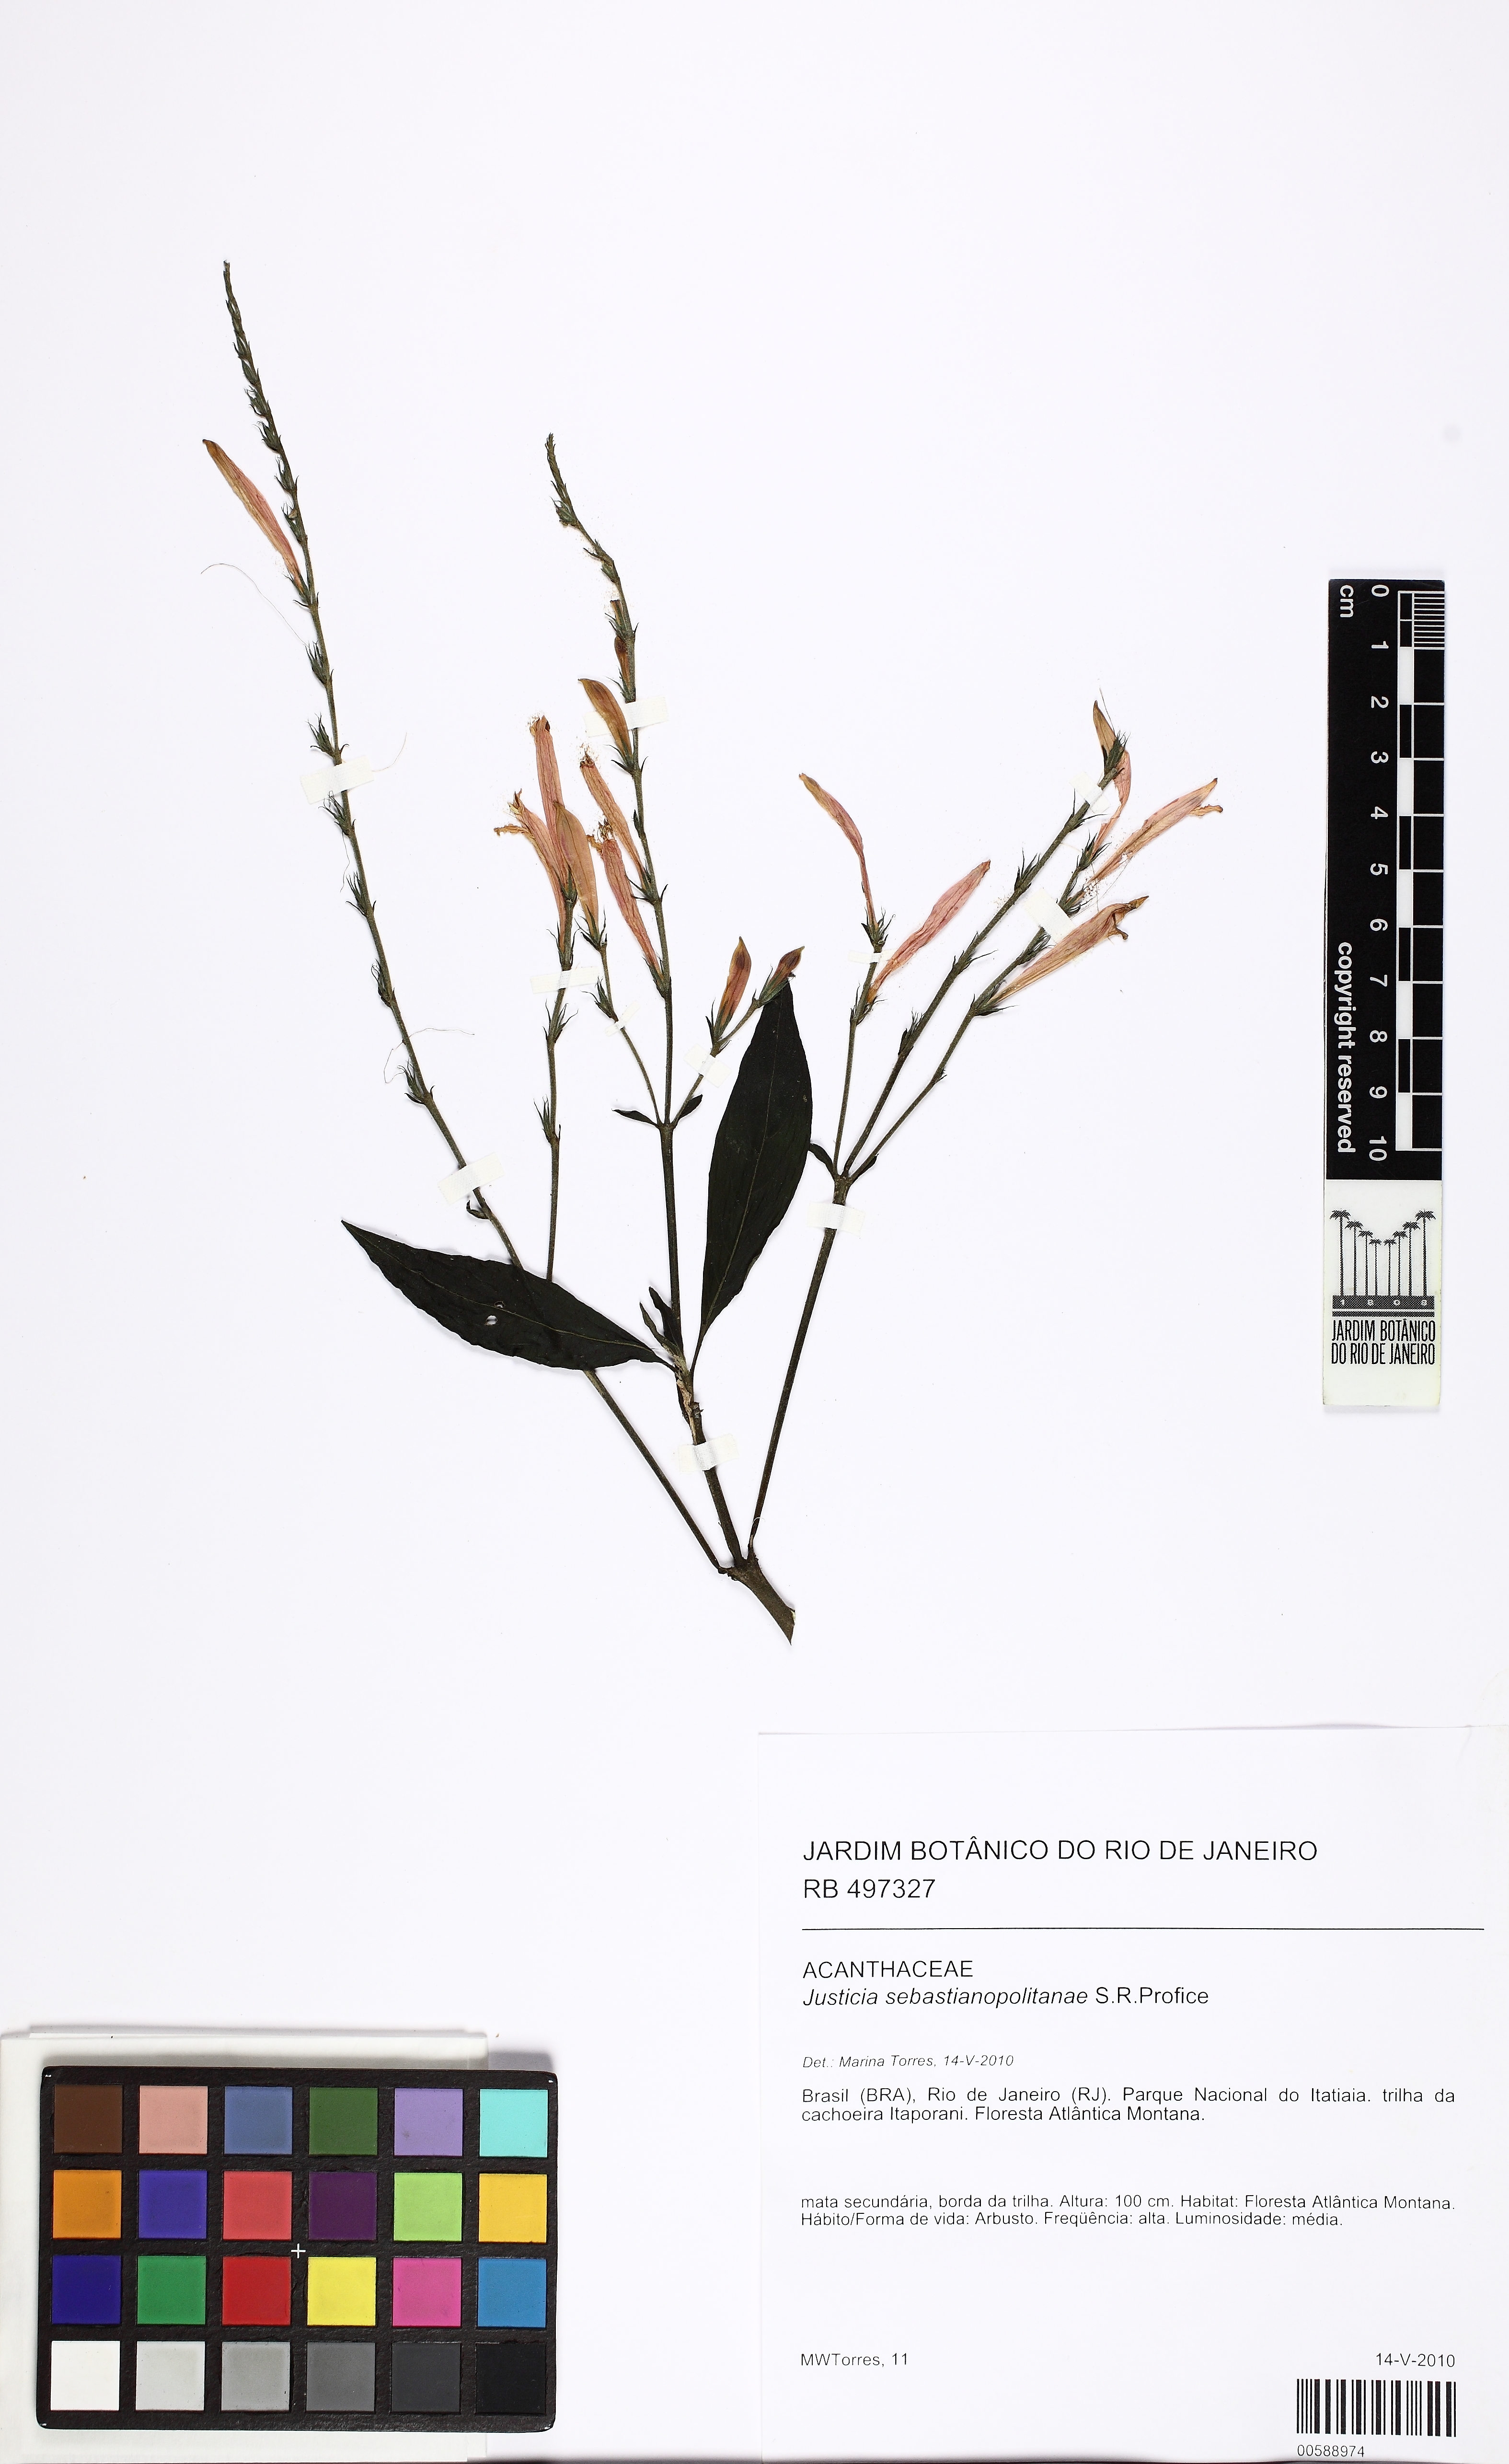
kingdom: Plantae
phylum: Tracheophyta
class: Magnoliopsida
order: Lamiales
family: Acanthaceae
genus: Justicia
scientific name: Justicia sebastianopolitanae
